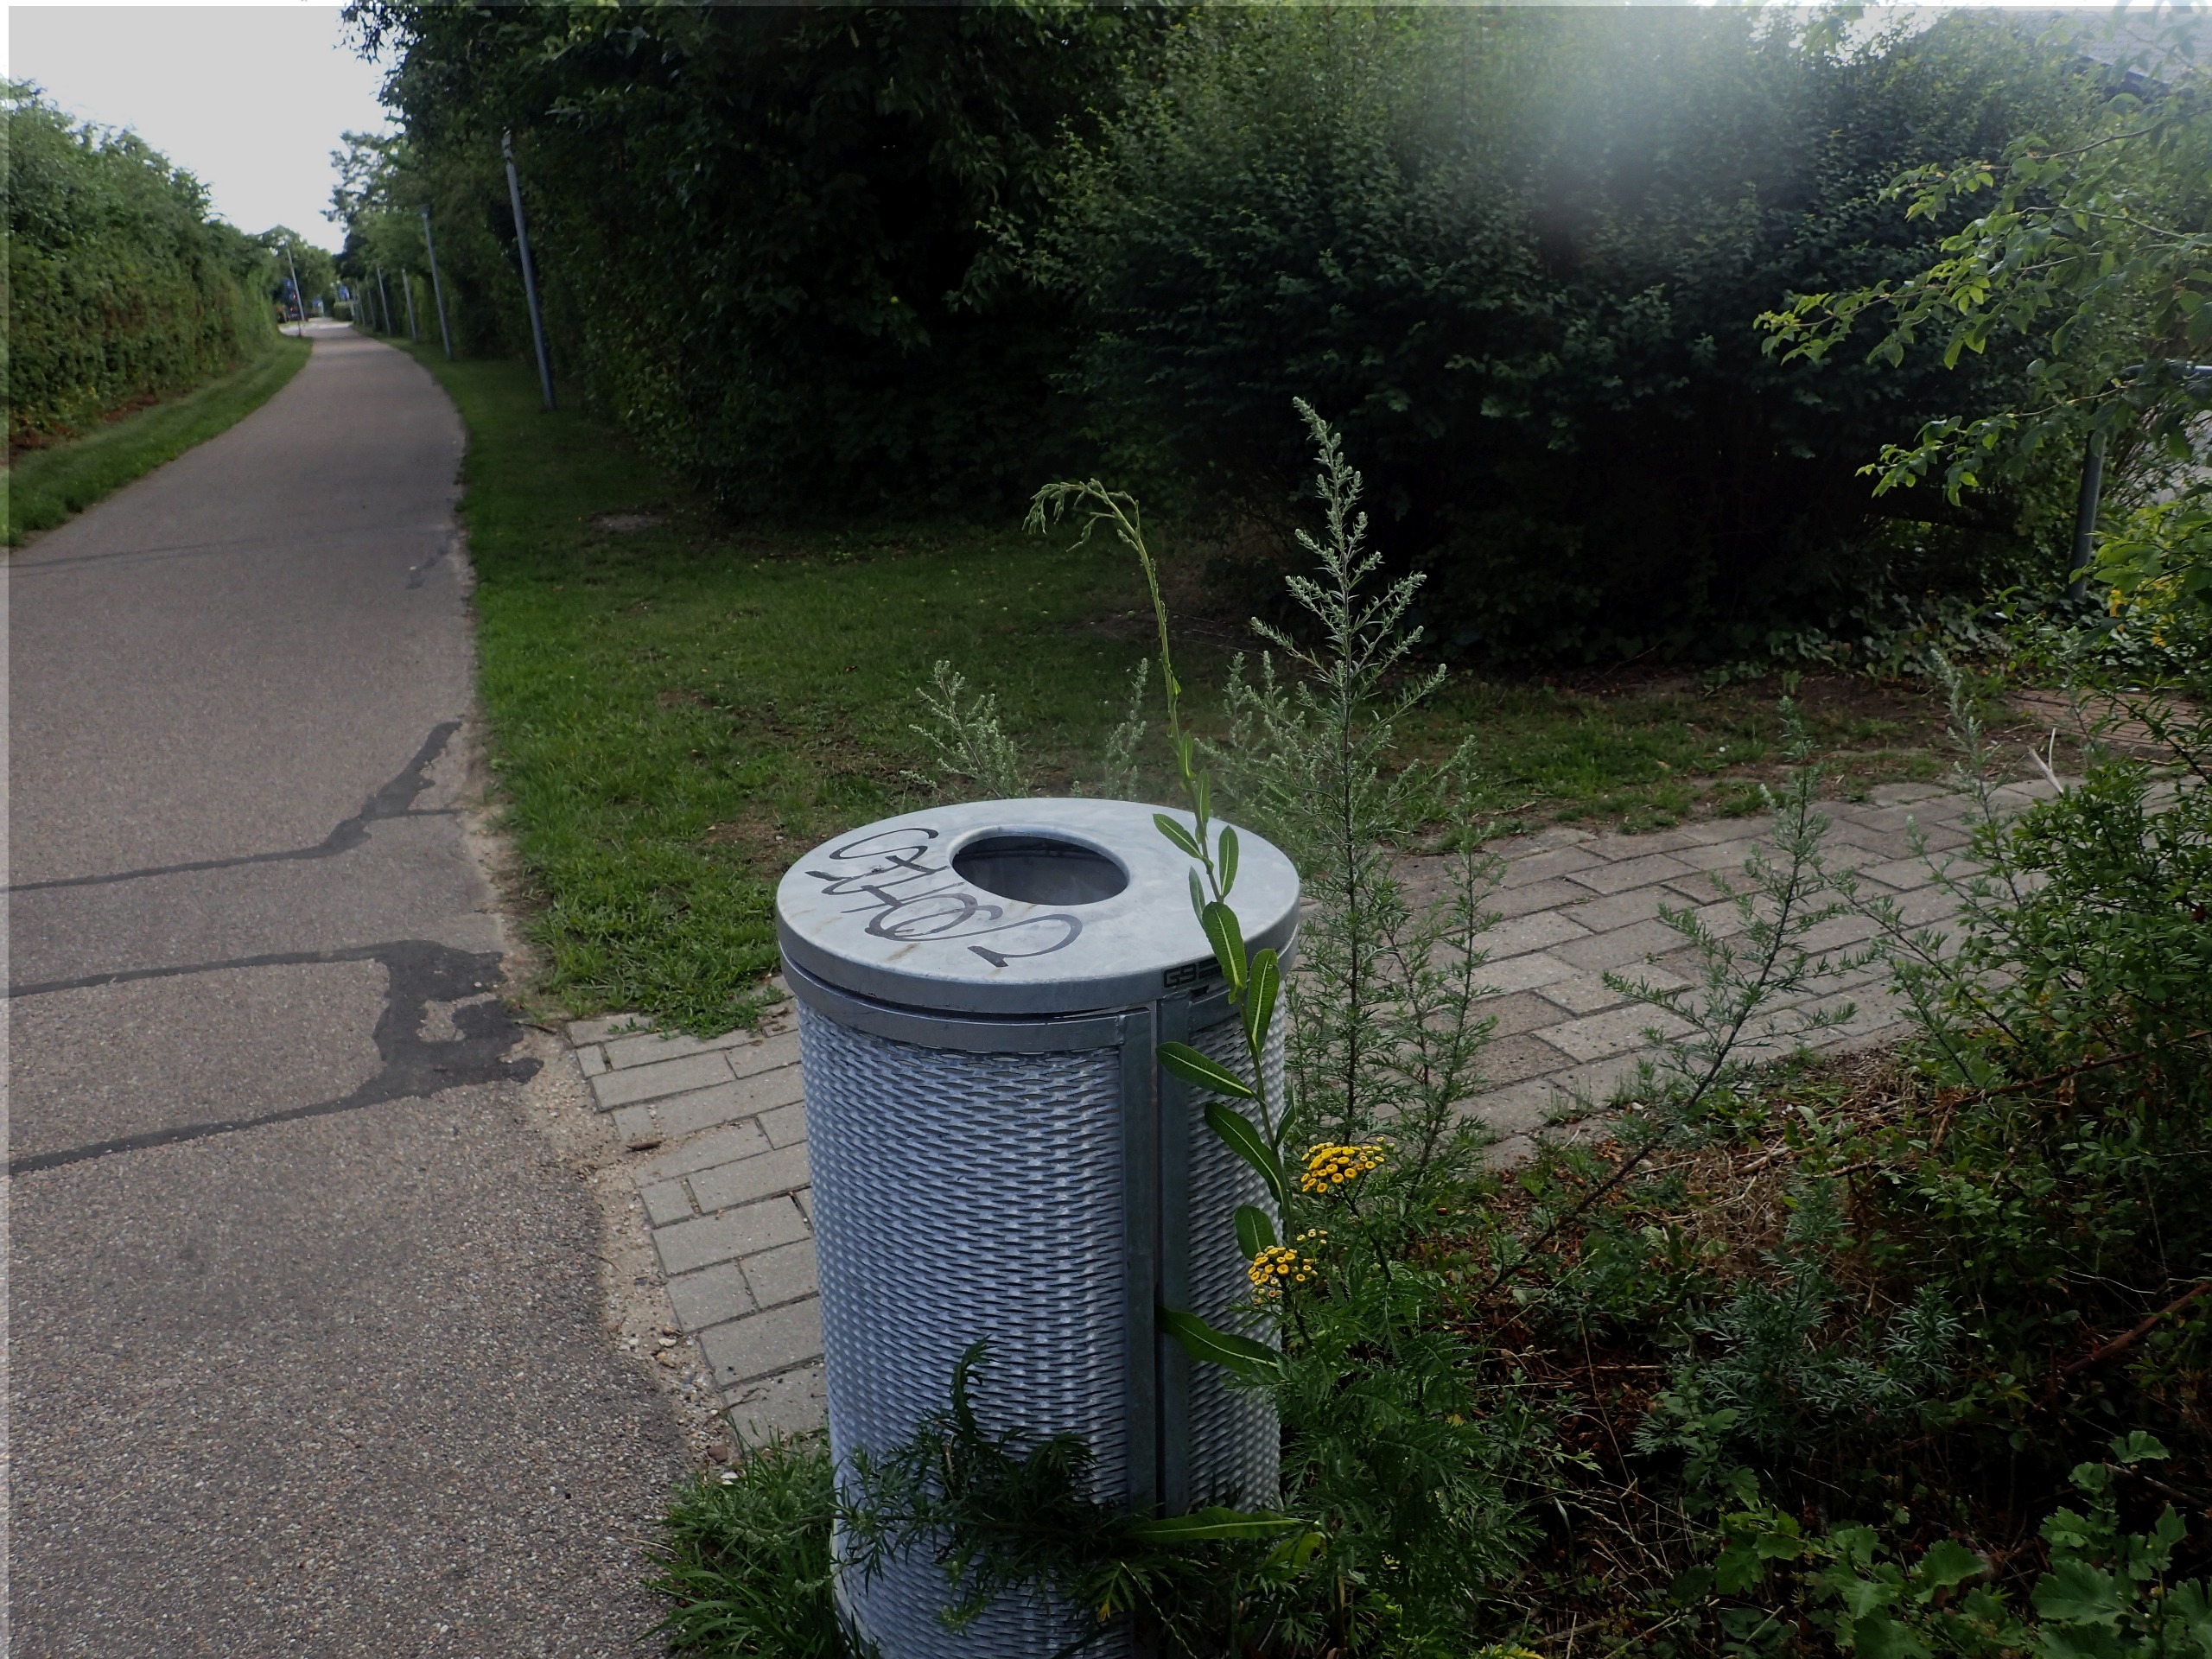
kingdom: Plantae
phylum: Tracheophyta
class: Magnoliopsida
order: Asterales
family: Asteraceae
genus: Artemisia
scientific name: Artemisia vulgaris
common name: Grå-bynke
